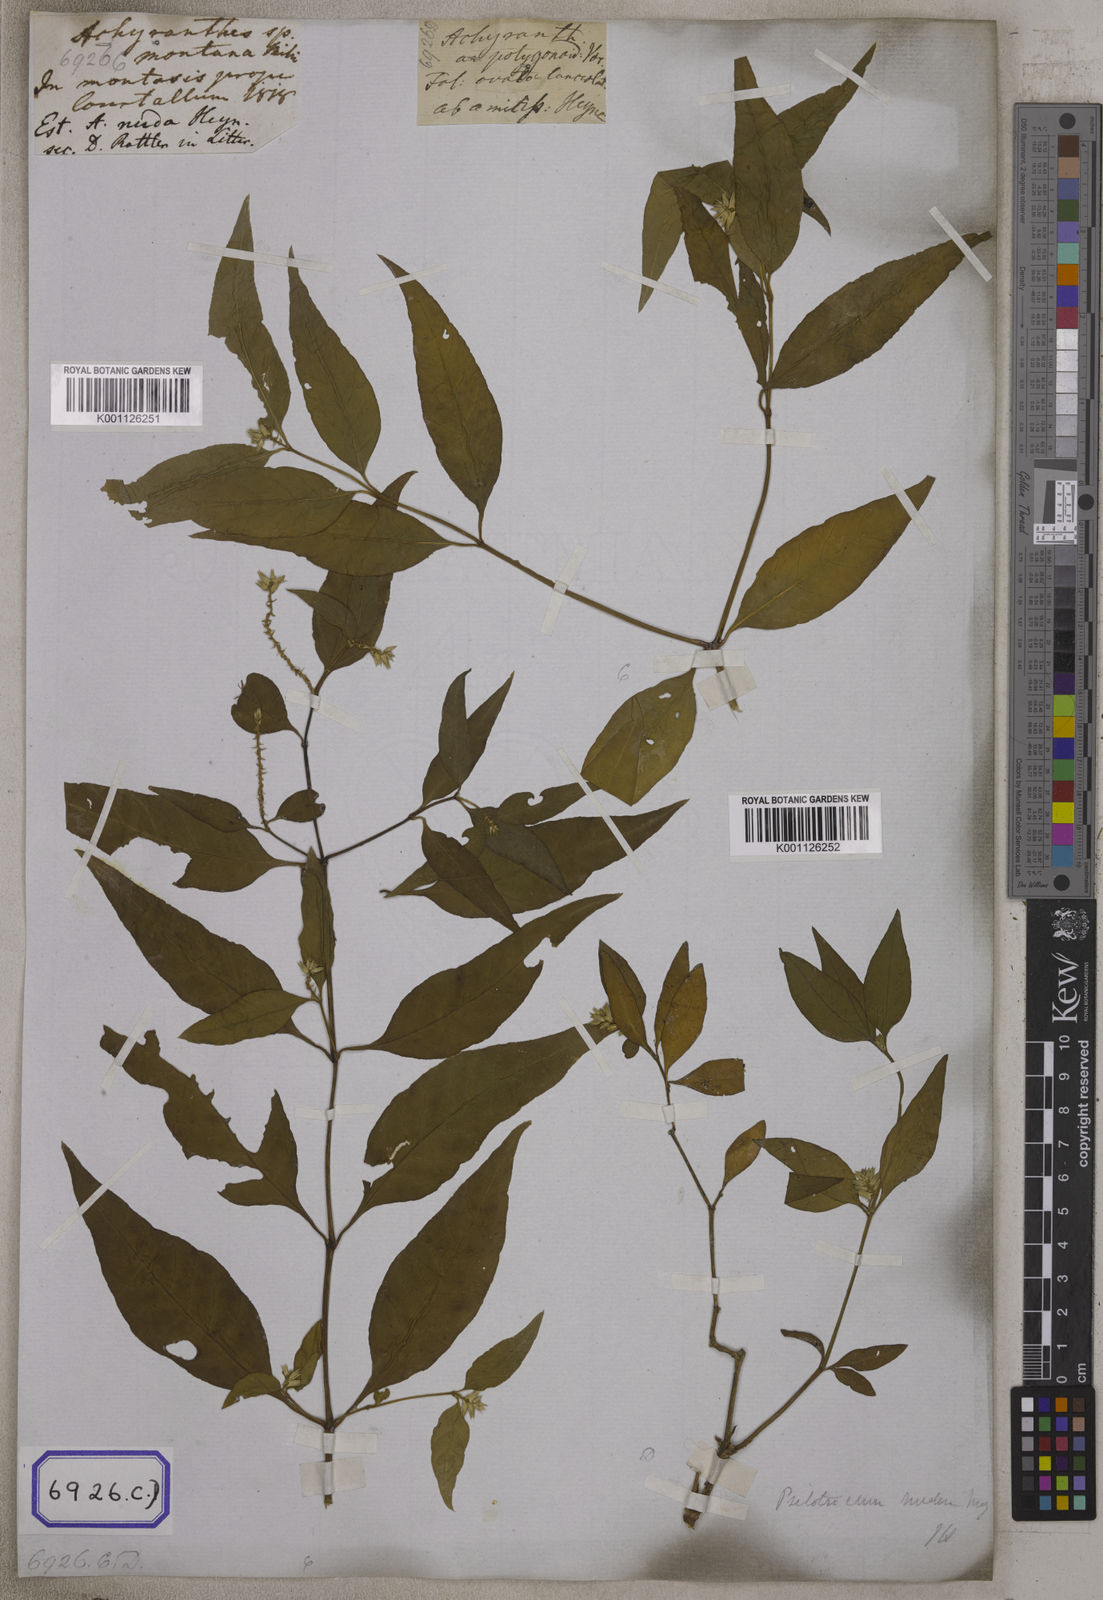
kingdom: Plantae
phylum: Tracheophyta
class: Magnoliopsida
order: Caryophyllales
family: Amaranthaceae
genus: Psilotrichum
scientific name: Psilotrichum nudum
